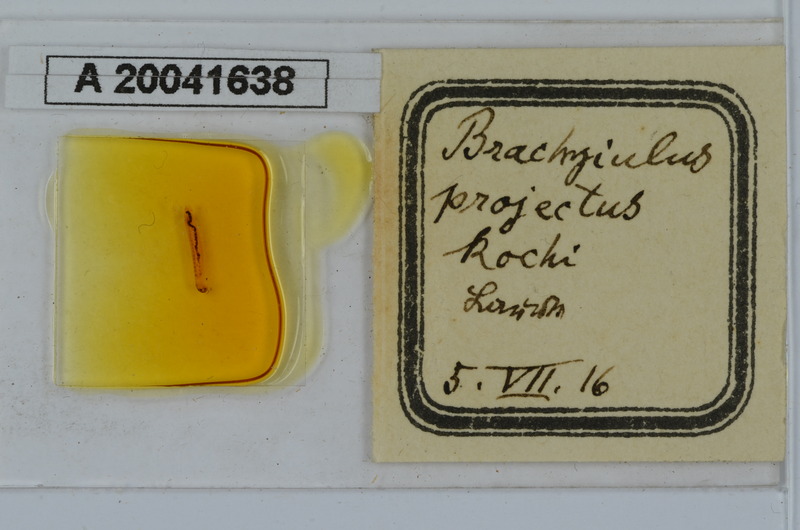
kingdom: Animalia
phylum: Arthropoda
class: Diplopoda
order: Julida
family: Julidae
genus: Megaphyllum
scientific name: Megaphyllum projectum
